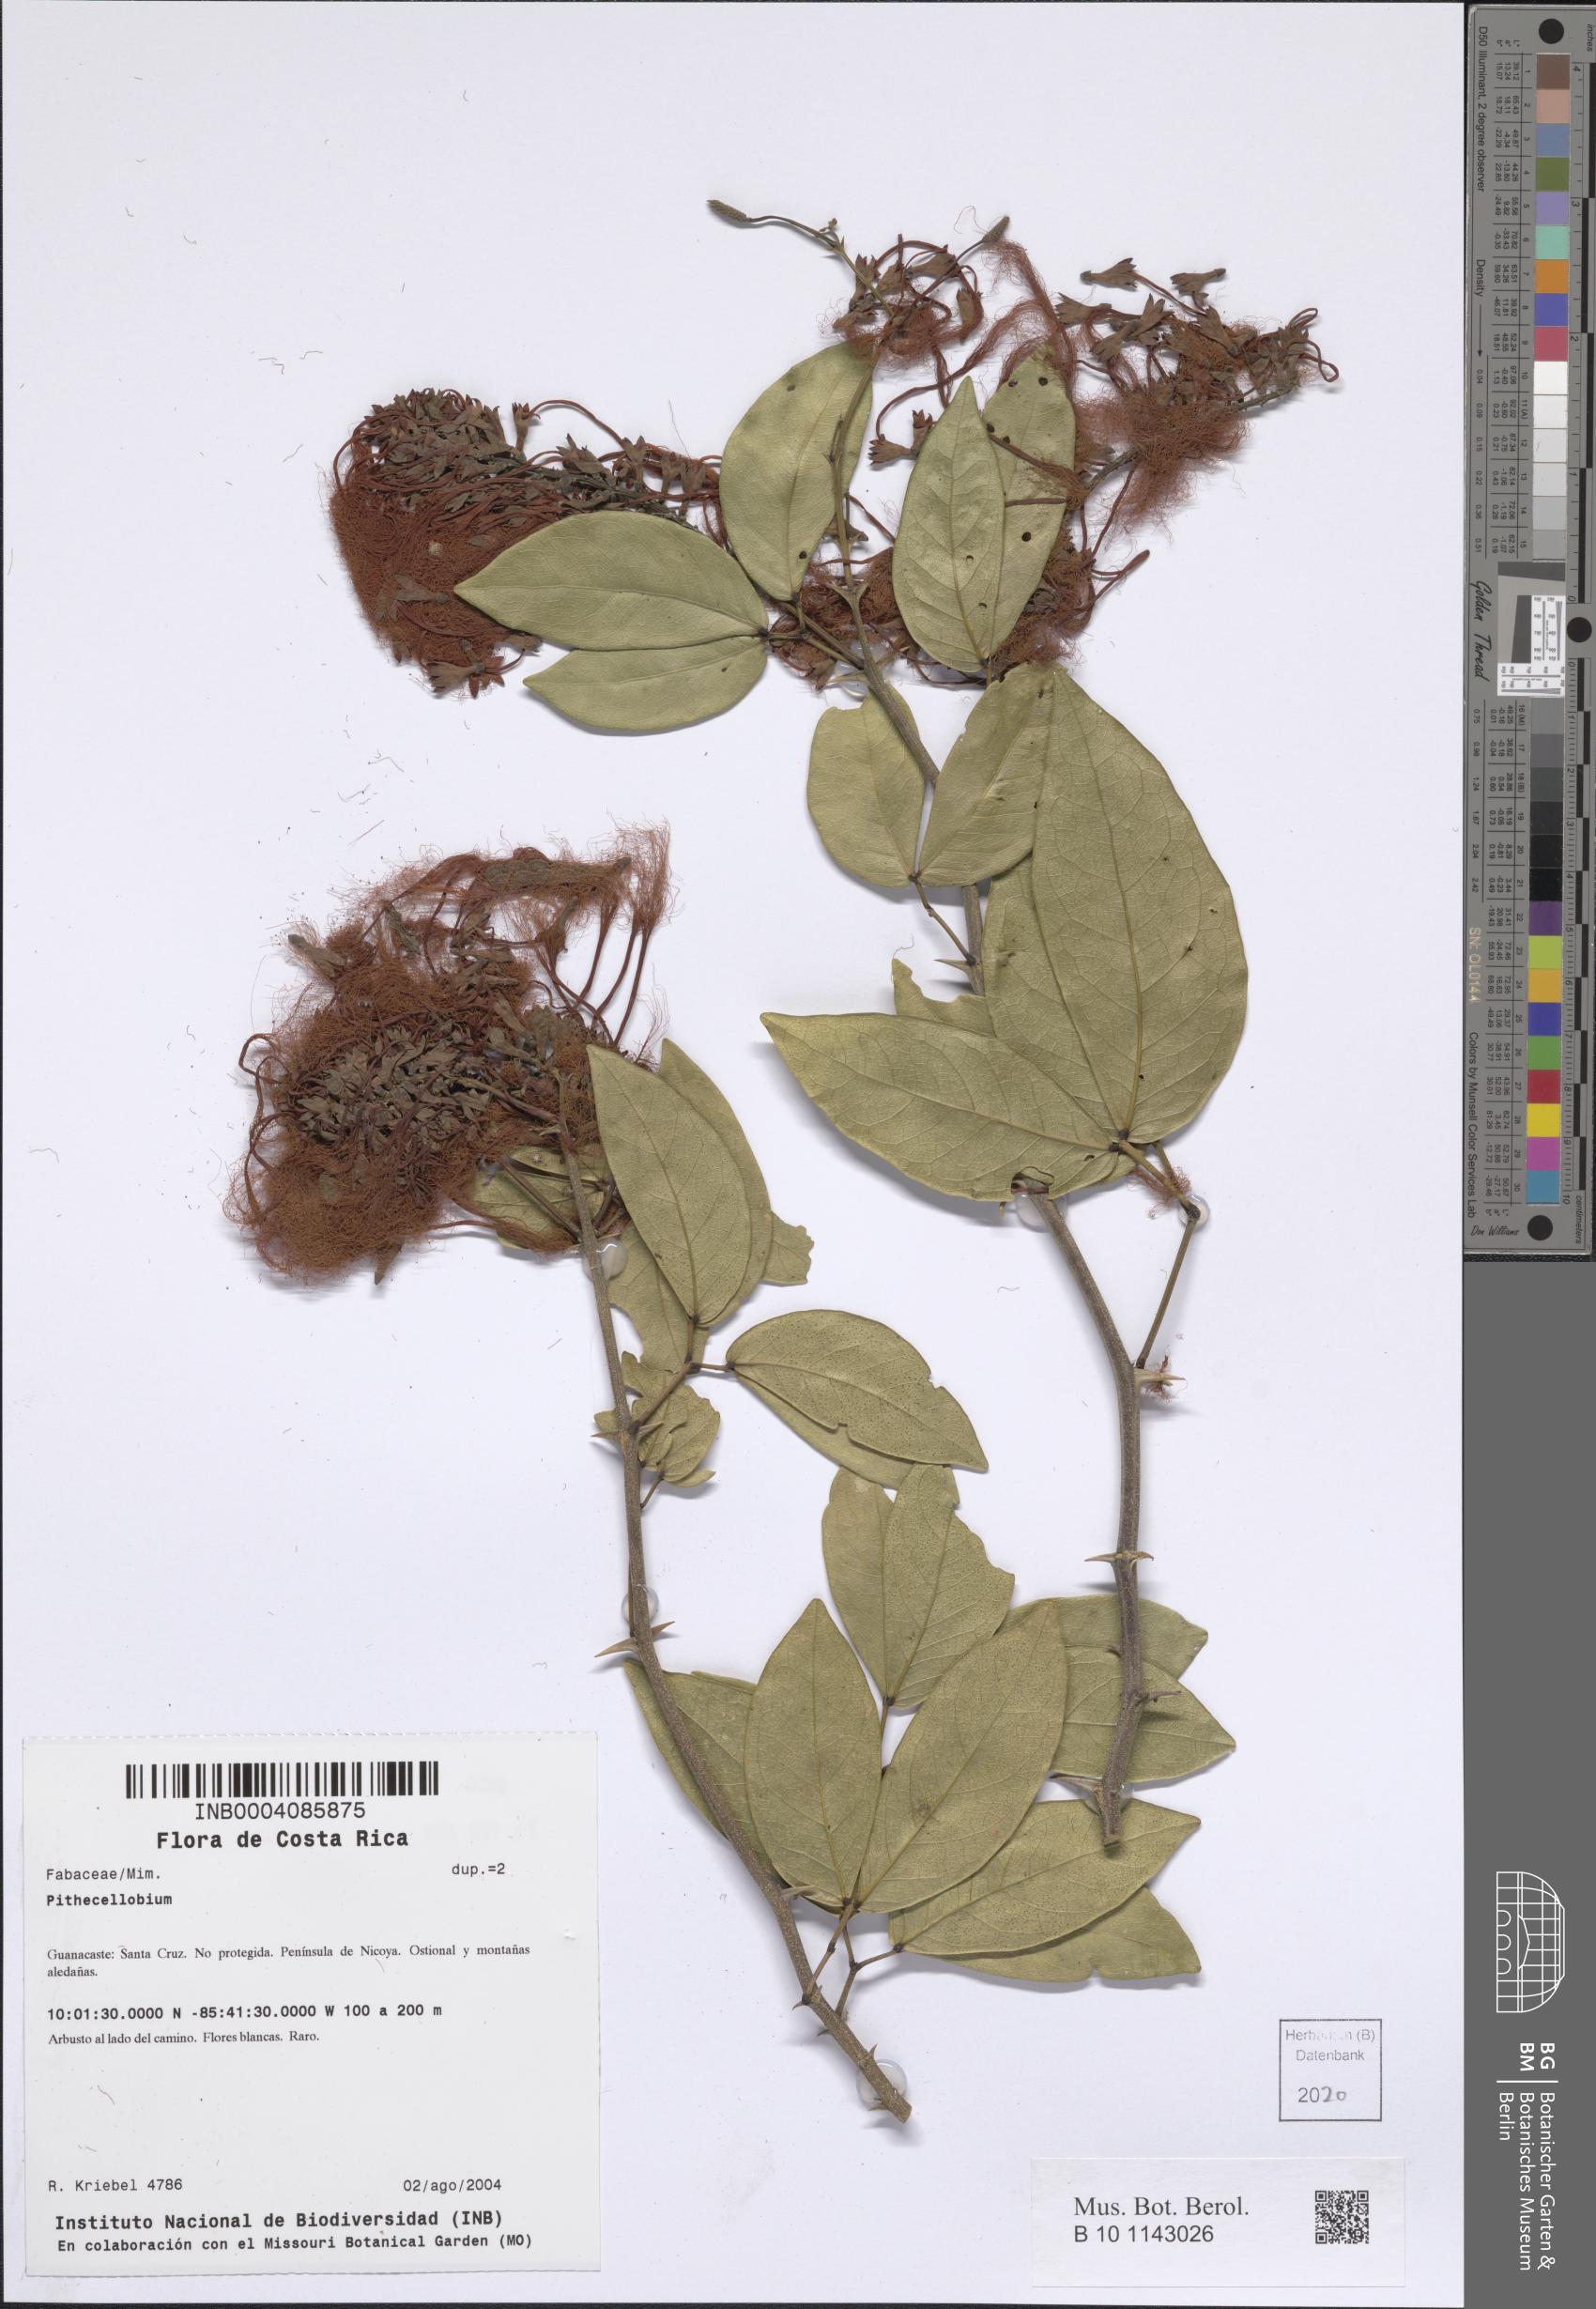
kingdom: Plantae
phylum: Tracheophyta
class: Magnoliopsida
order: Fabales
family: Fabaceae
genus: Pithecellobium
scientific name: Pithecellobium
